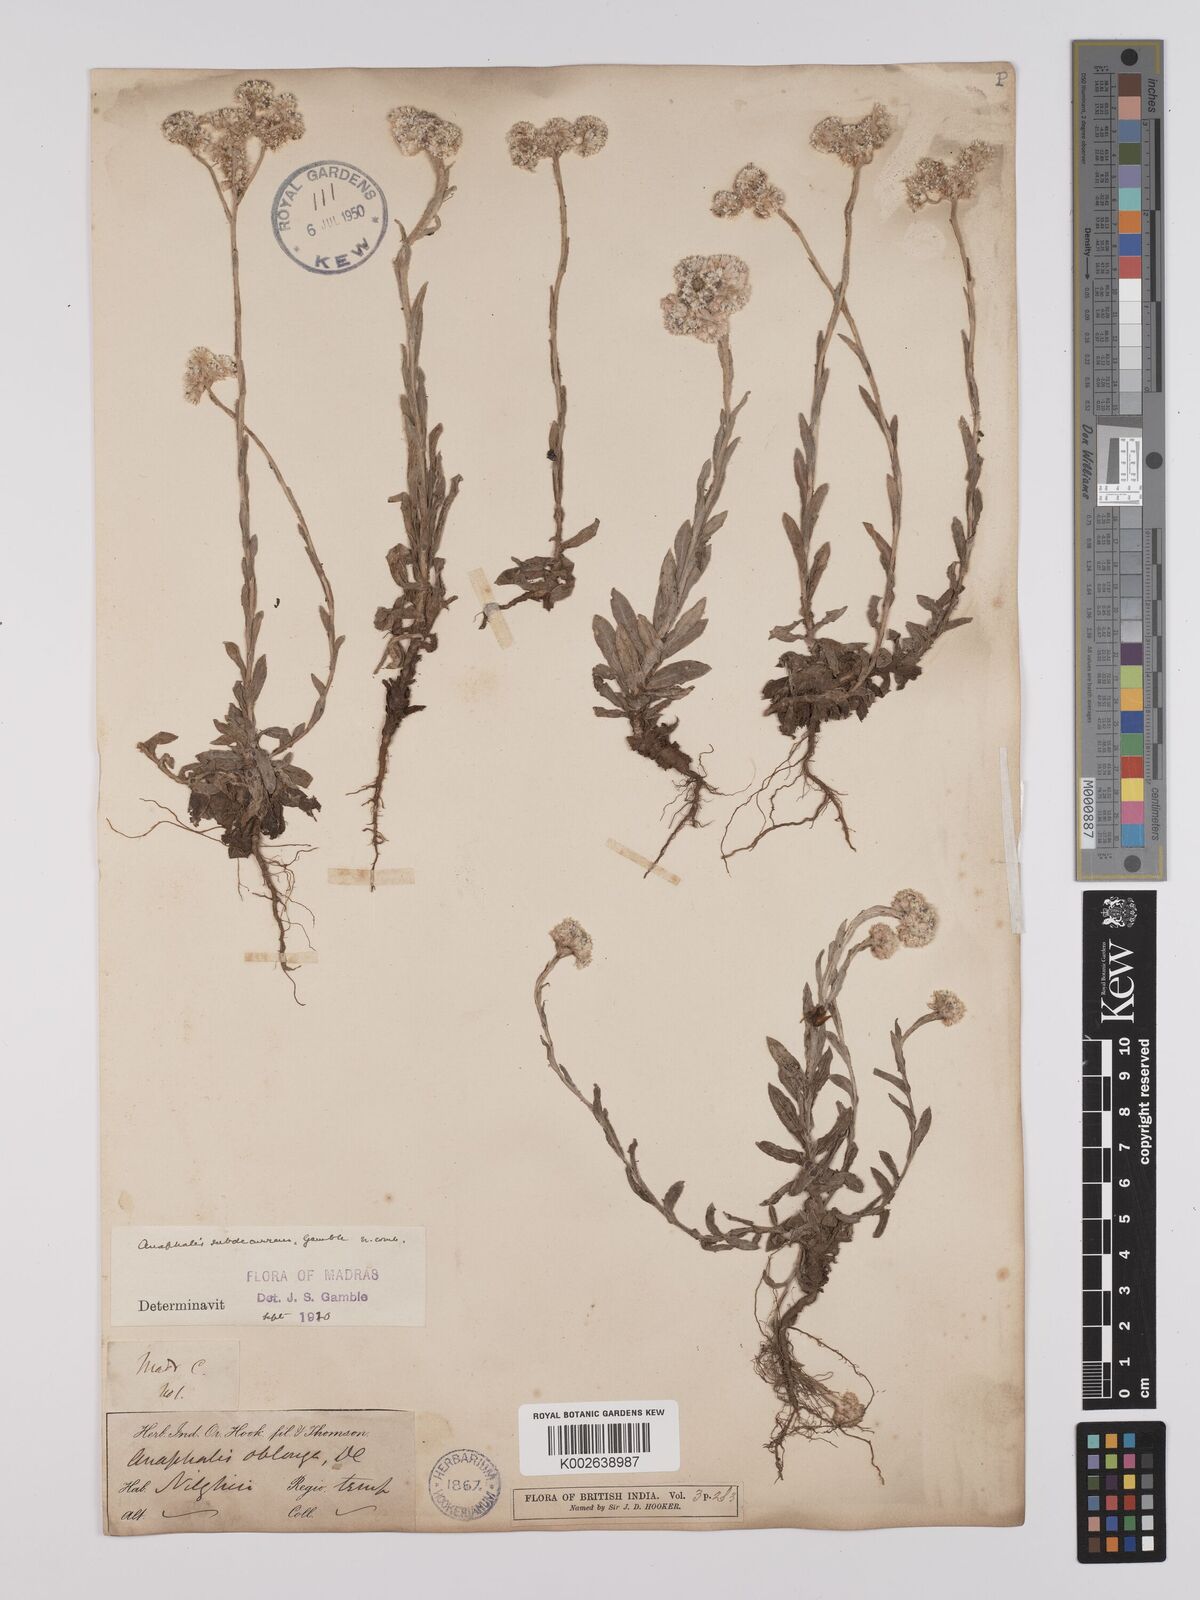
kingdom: Plantae
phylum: Tracheophyta
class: Magnoliopsida
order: Asterales
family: Asteraceae
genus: Anaphalis
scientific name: Anaphalis subdecurrens
